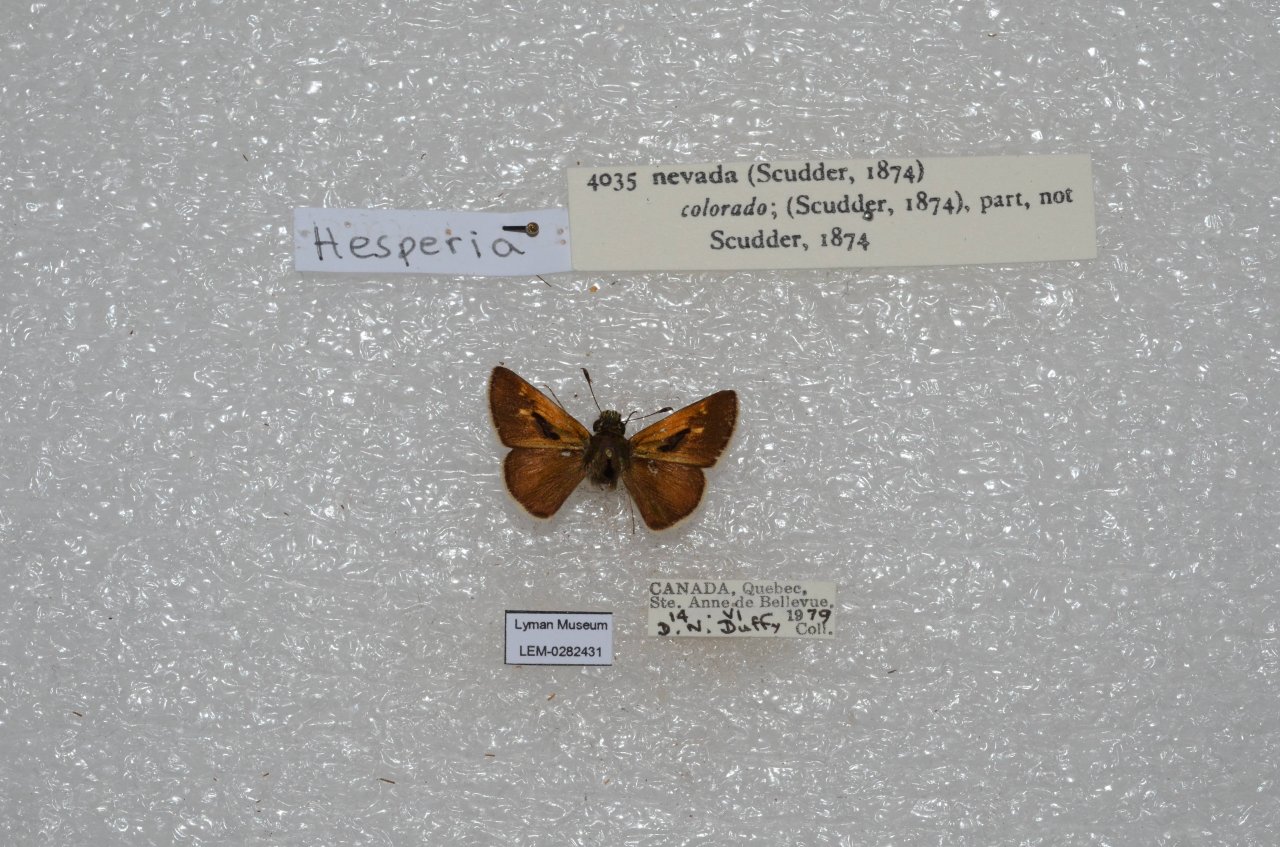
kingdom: Animalia
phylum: Arthropoda
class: Insecta
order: Lepidoptera
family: Hesperiidae
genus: Polites
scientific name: Polites themistocles
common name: Tawny-edged Skipper
